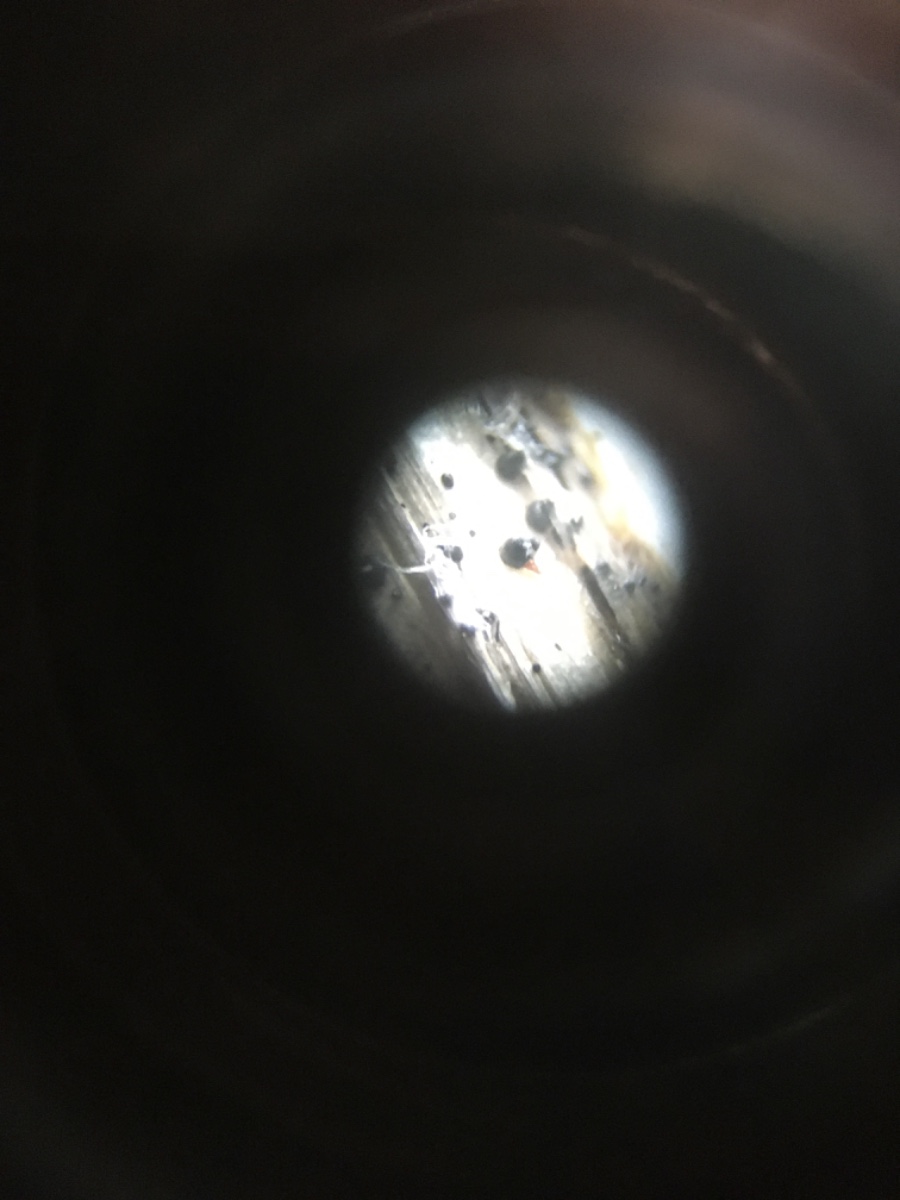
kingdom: Fungi
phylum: Ascomycota
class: Sordariomycetes
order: Hypocreales
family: Nectriaceae
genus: Macroconia
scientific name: Macroconia sphaeriae
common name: kulkegle-cinnobersvamp
